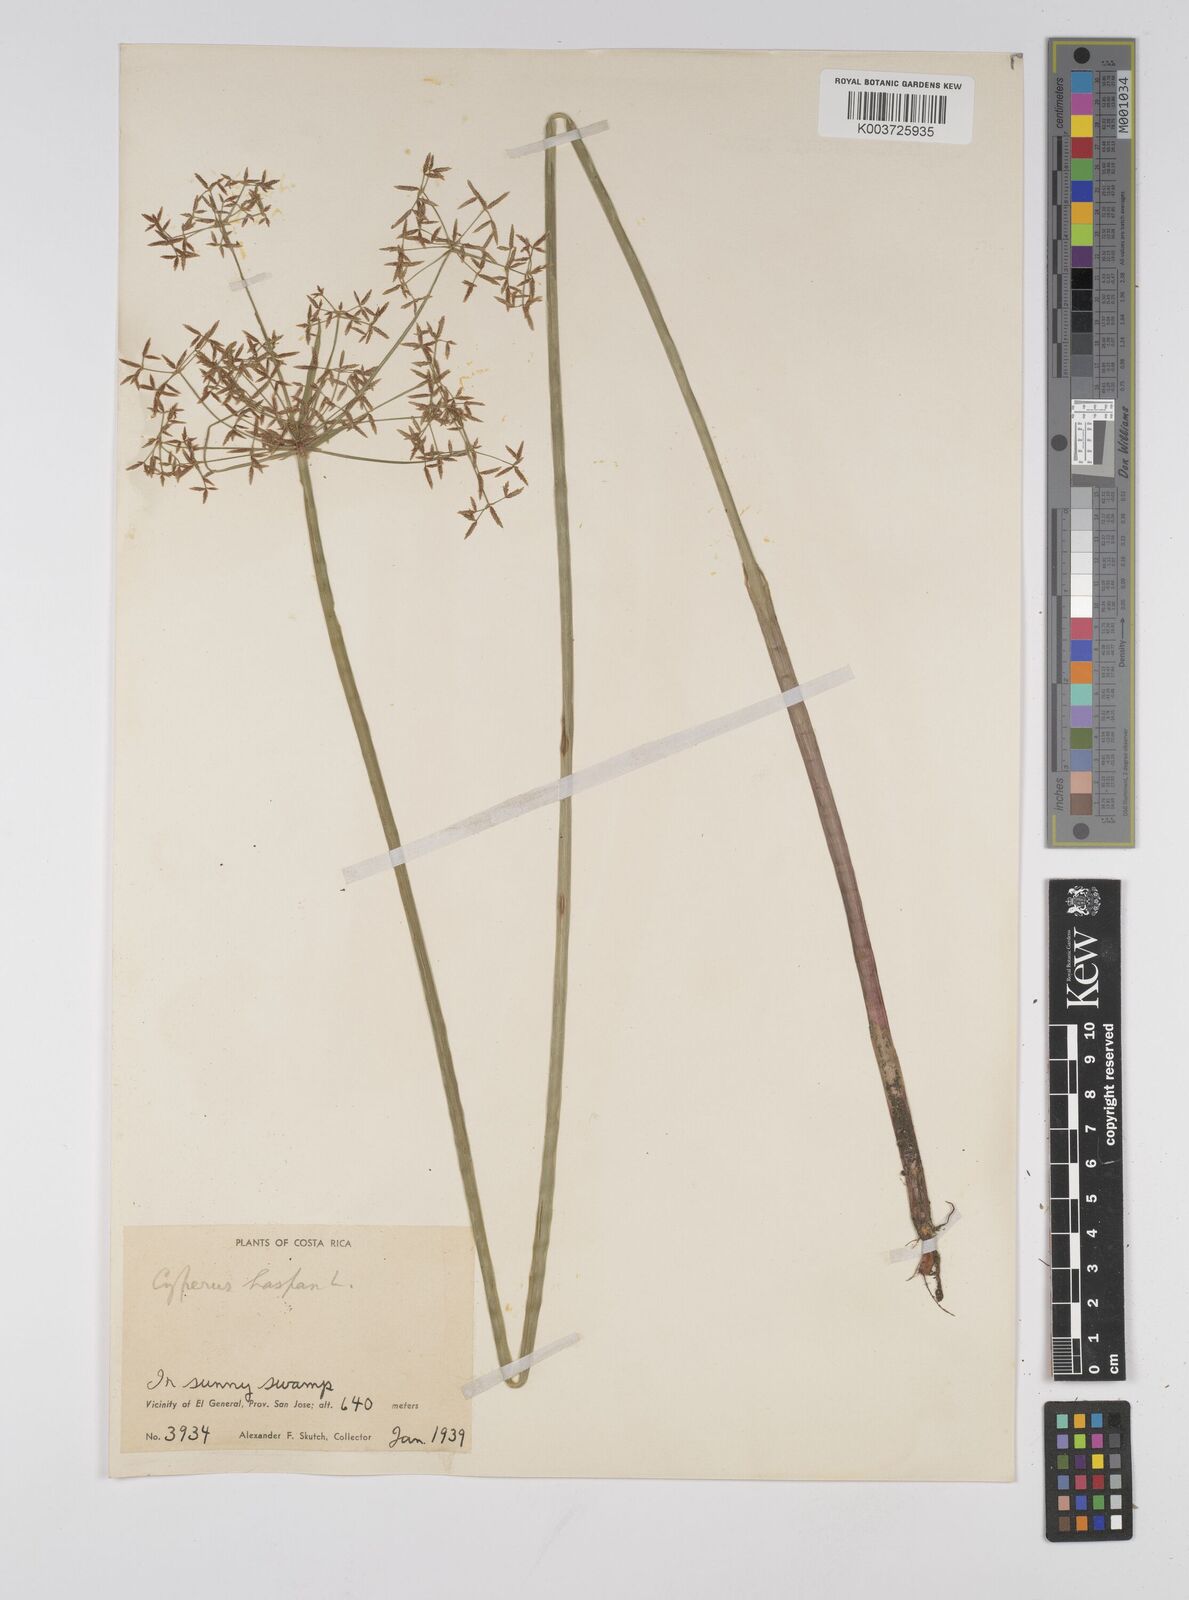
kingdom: Plantae
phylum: Tracheophyta
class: Liliopsida
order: Poales
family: Cyperaceae
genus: Cyperus
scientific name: Cyperus haspan
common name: Haspan flatsedge
